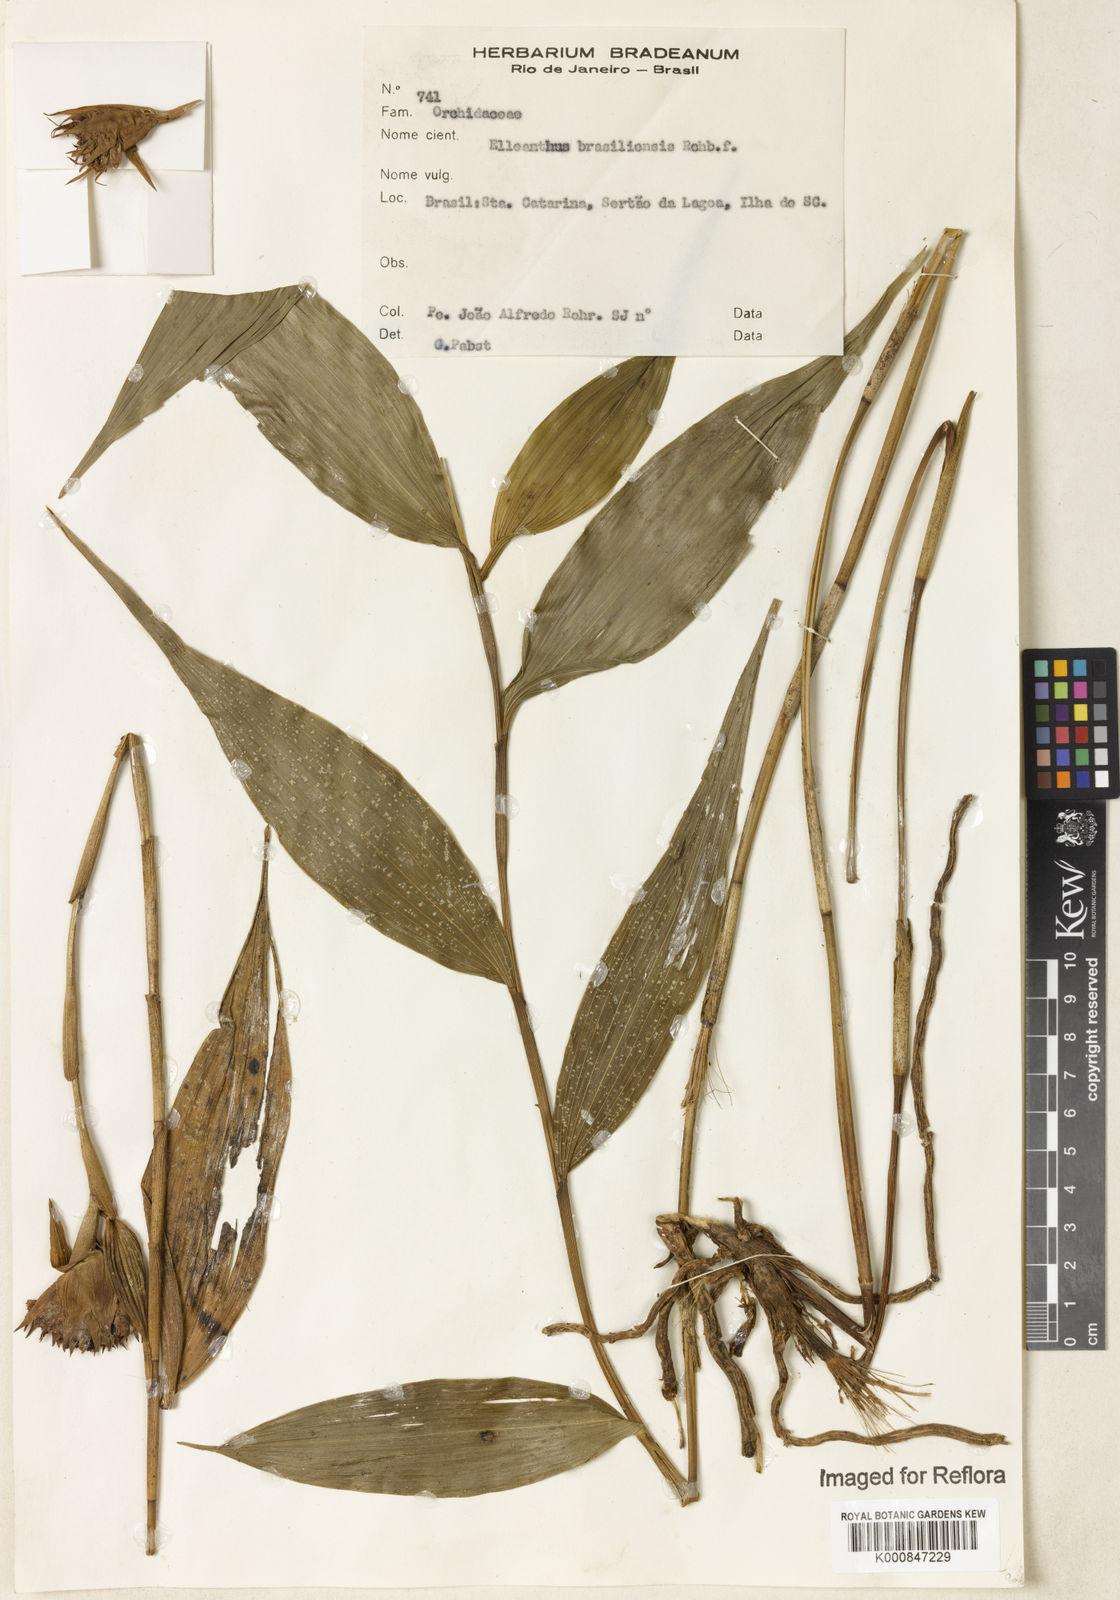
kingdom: Plantae
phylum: Tracheophyta
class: Liliopsida
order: Asparagales
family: Orchidaceae
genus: Elleanthus
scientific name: Elleanthus brasiliensis
